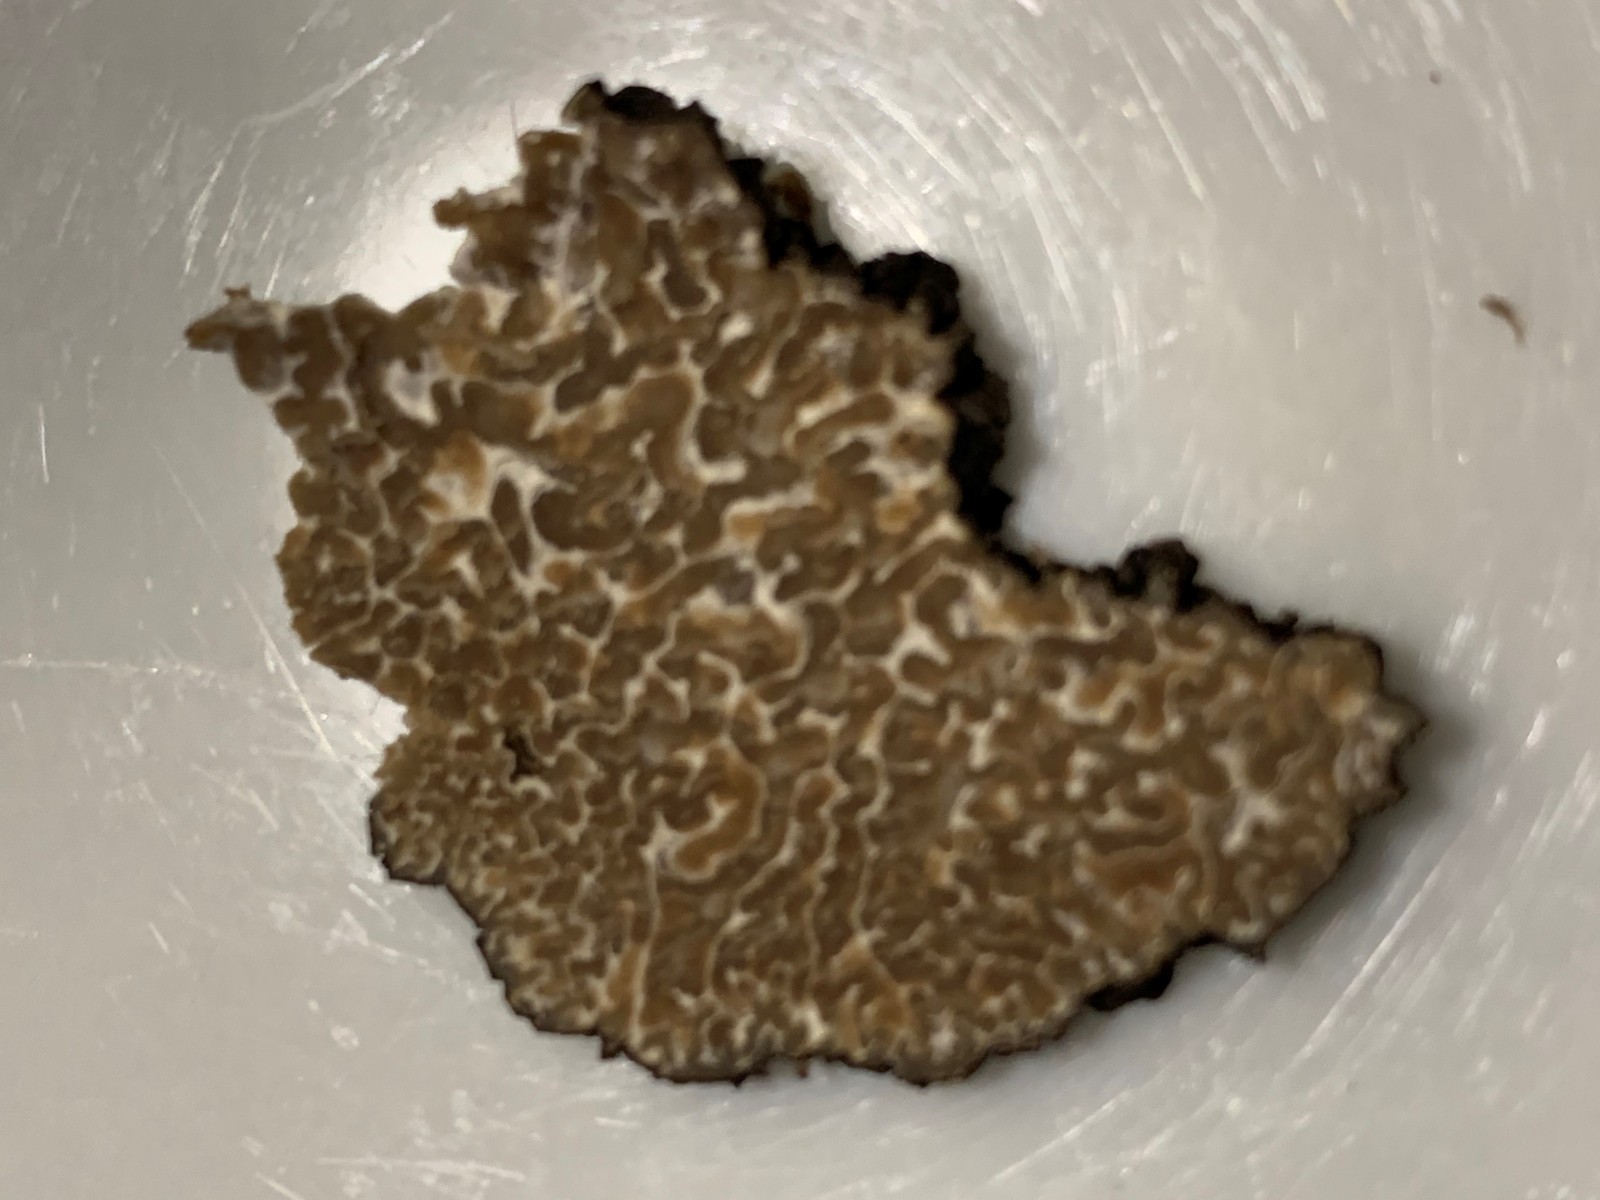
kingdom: Fungi
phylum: Ascomycota
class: Pezizomycetes
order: Pezizales
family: Tuberaceae
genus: Tuber
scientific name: Tuber aestivum
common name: sommer-trøffel
